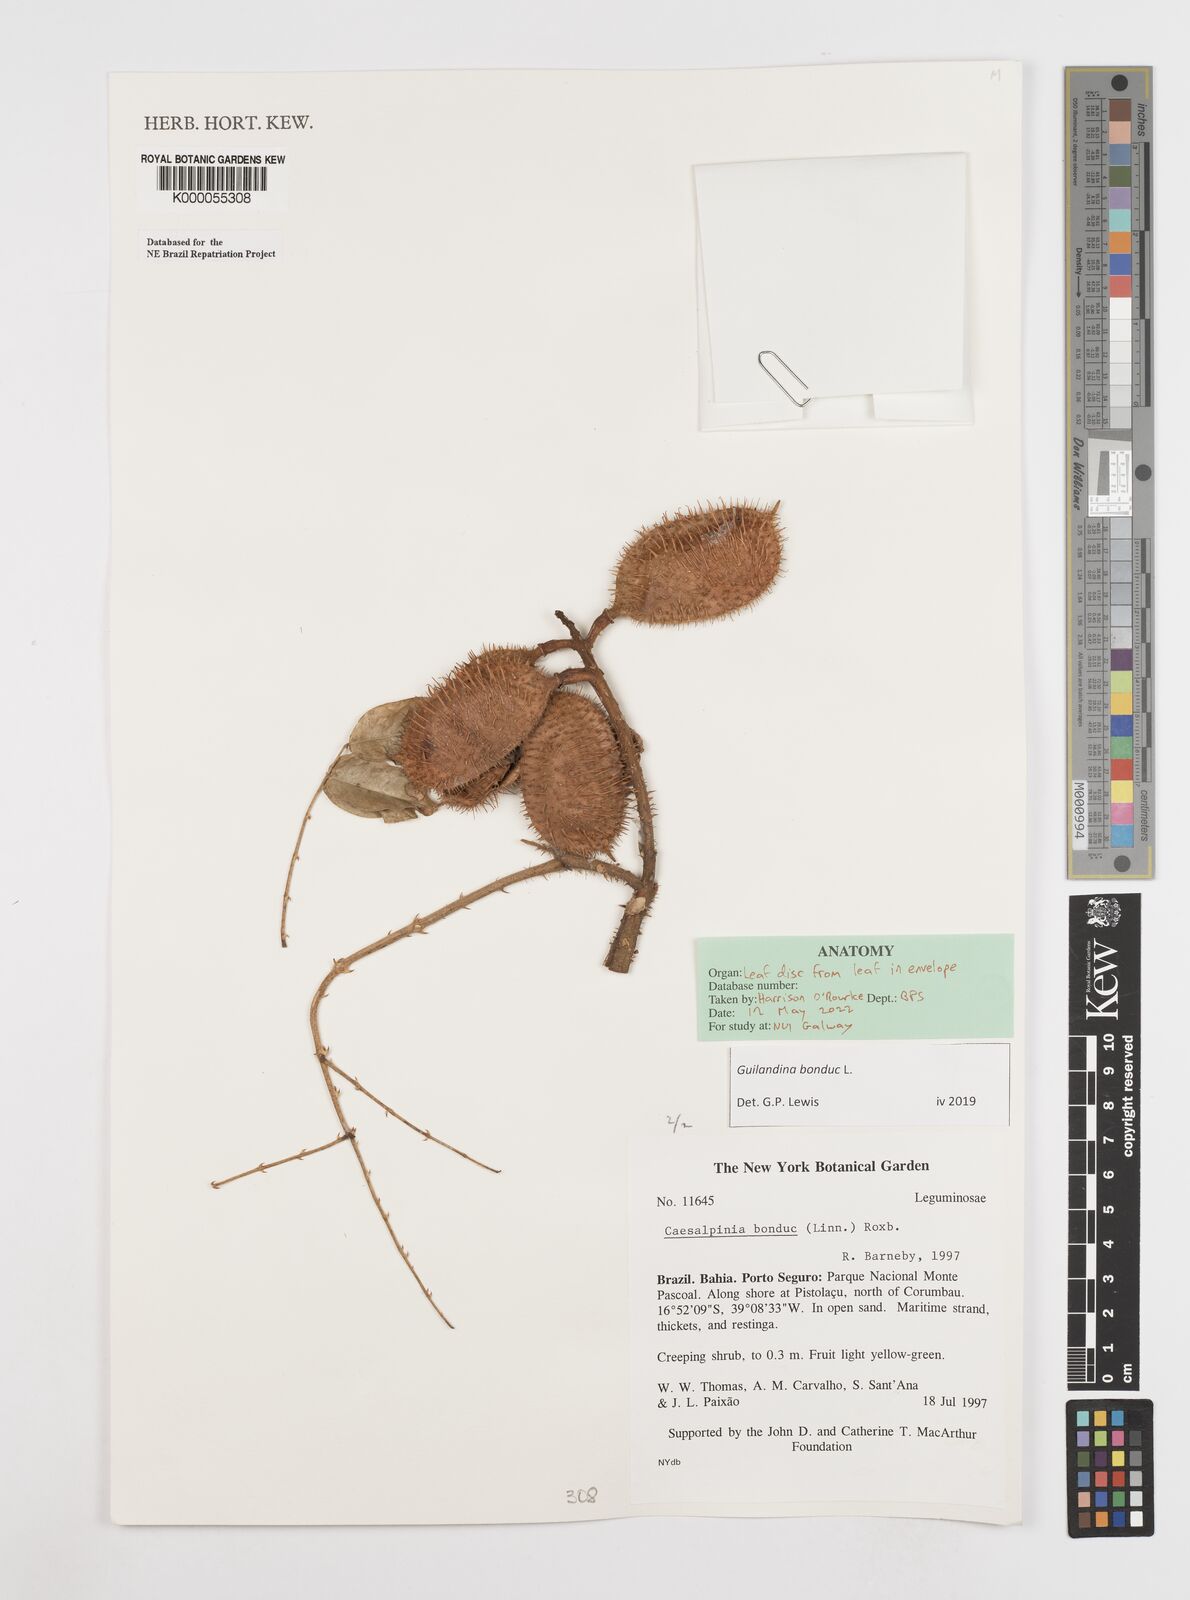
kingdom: Plantae
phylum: Tracheophyta
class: Magnoliopsida
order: Fabales
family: Fabaceae
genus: Guilandina
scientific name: Guilandina bonduc
